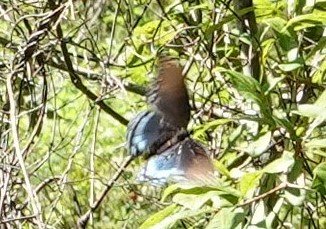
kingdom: Animalia
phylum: Arthropoda
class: Insecta
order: Lepidoptera
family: Nymphalidae
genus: Limenitis
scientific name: Limenitis arthemis
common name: Red-spotted Admiral
